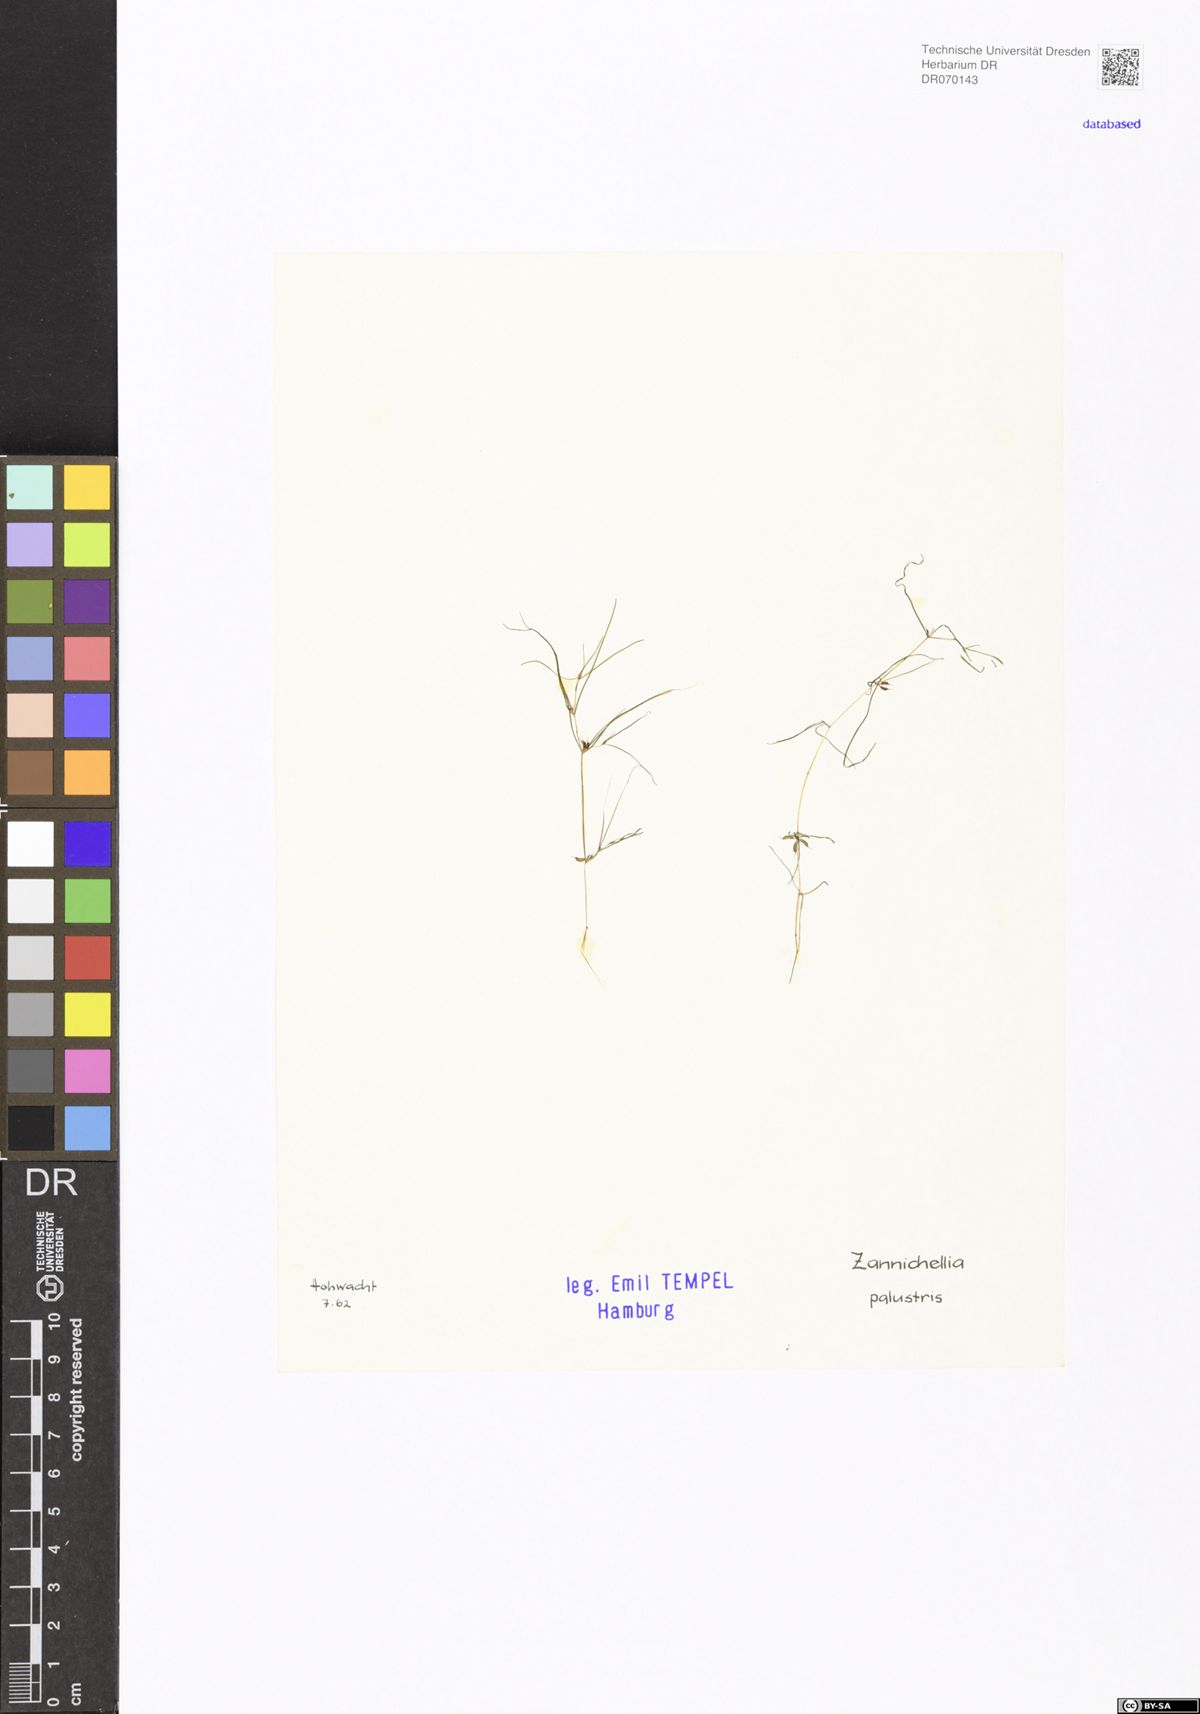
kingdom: Plantae
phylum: Tracheophyta
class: Liliopsida
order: Alismatales
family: Potamogetonaceae
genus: Zannichellia
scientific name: Zannichellia palustris
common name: Horned pondweed
